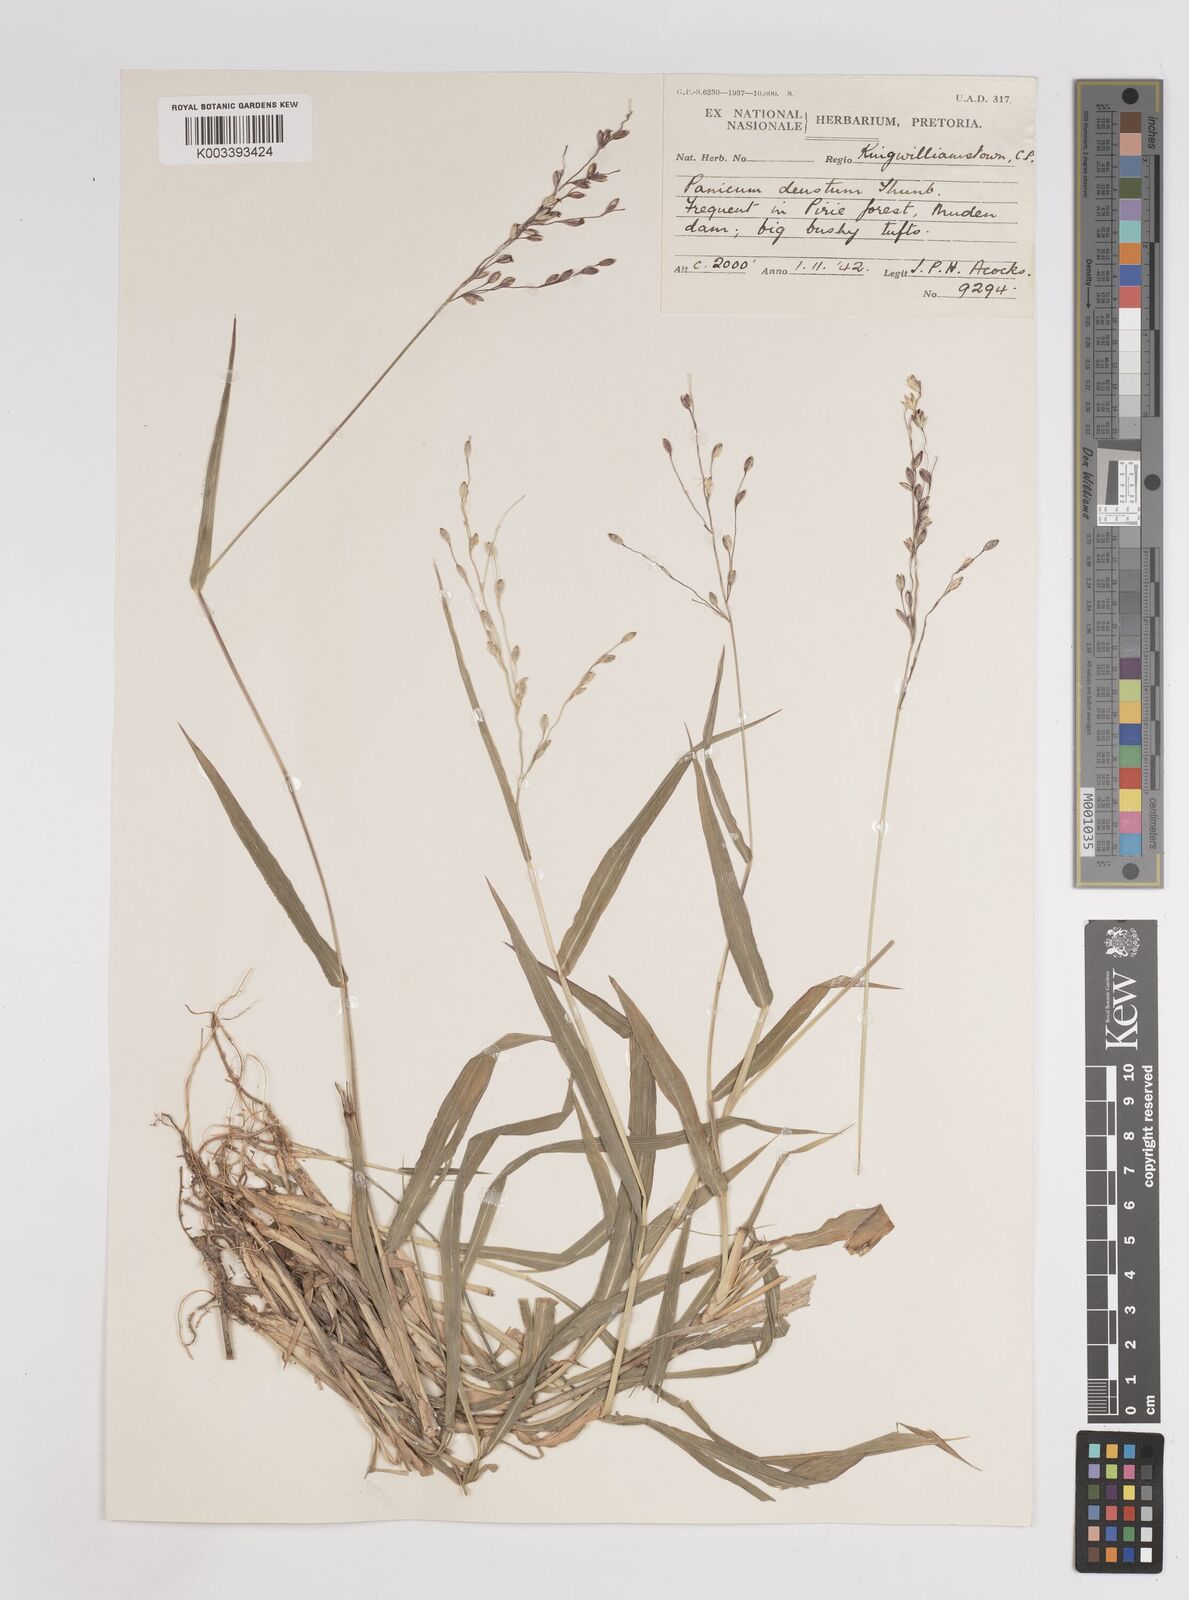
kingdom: Plantae
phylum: Tracheophyta
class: Liliopsida
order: Poales
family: Poaceae
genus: Panicum
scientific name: Panicum deustum
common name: Reed panicum
